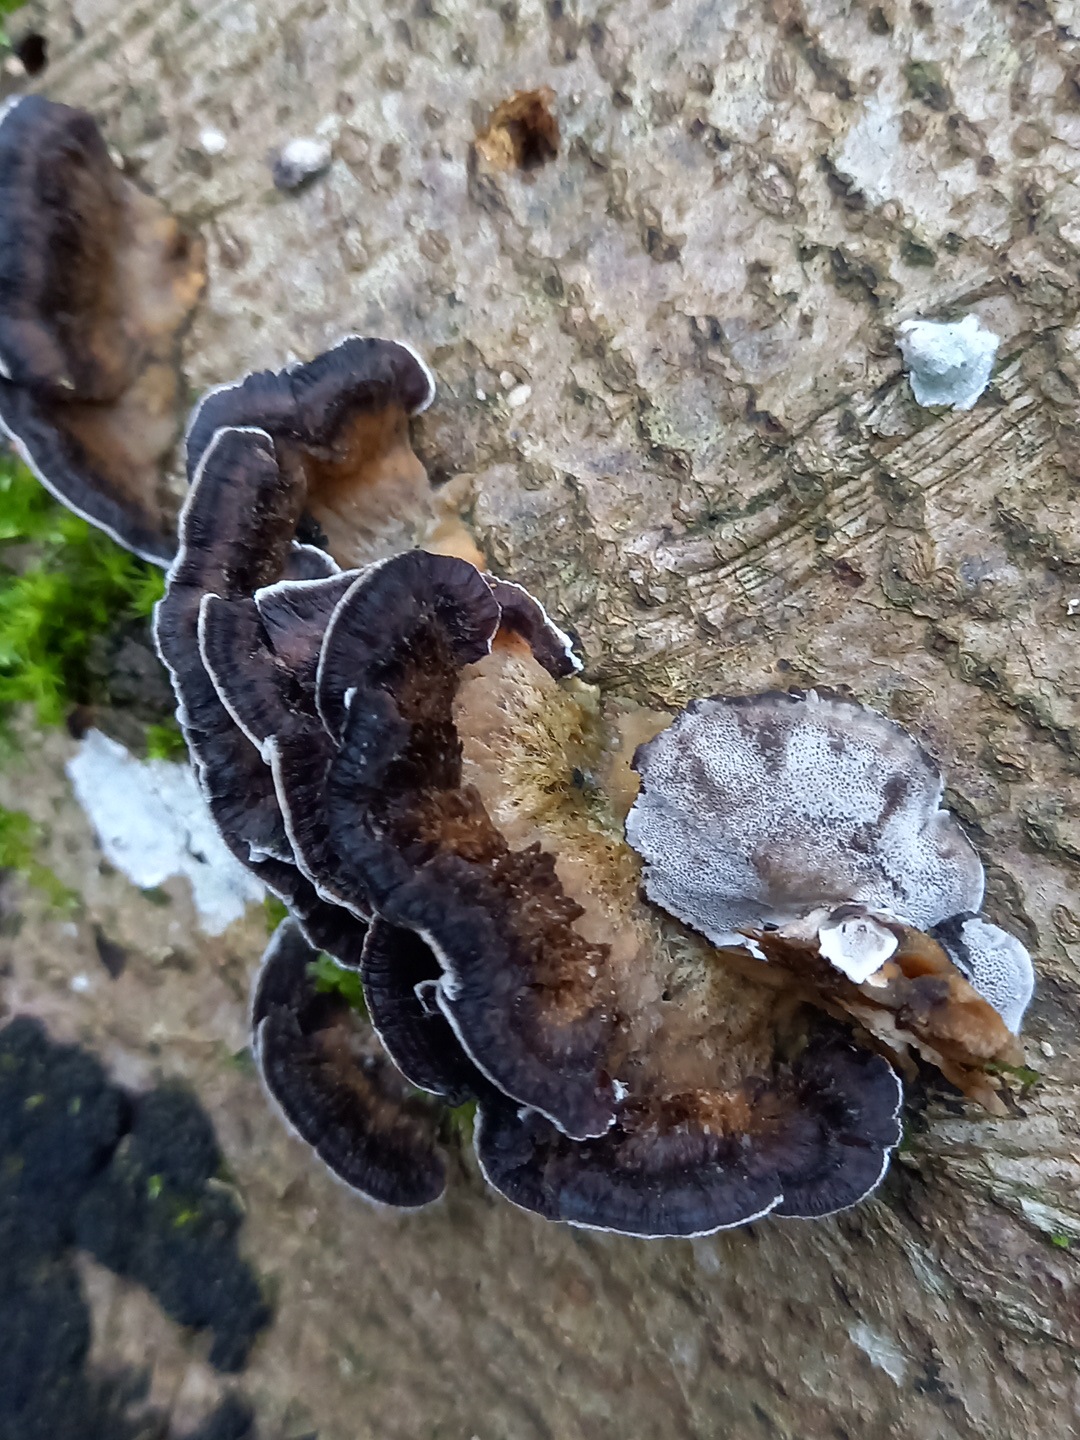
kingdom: Fungi
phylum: Basidiomycota
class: Agaricomycetes
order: Polyporales
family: Phanerochaetaceae
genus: Bjerkandera
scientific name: Bjerkandera adusta
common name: sveden sodporesvamp
